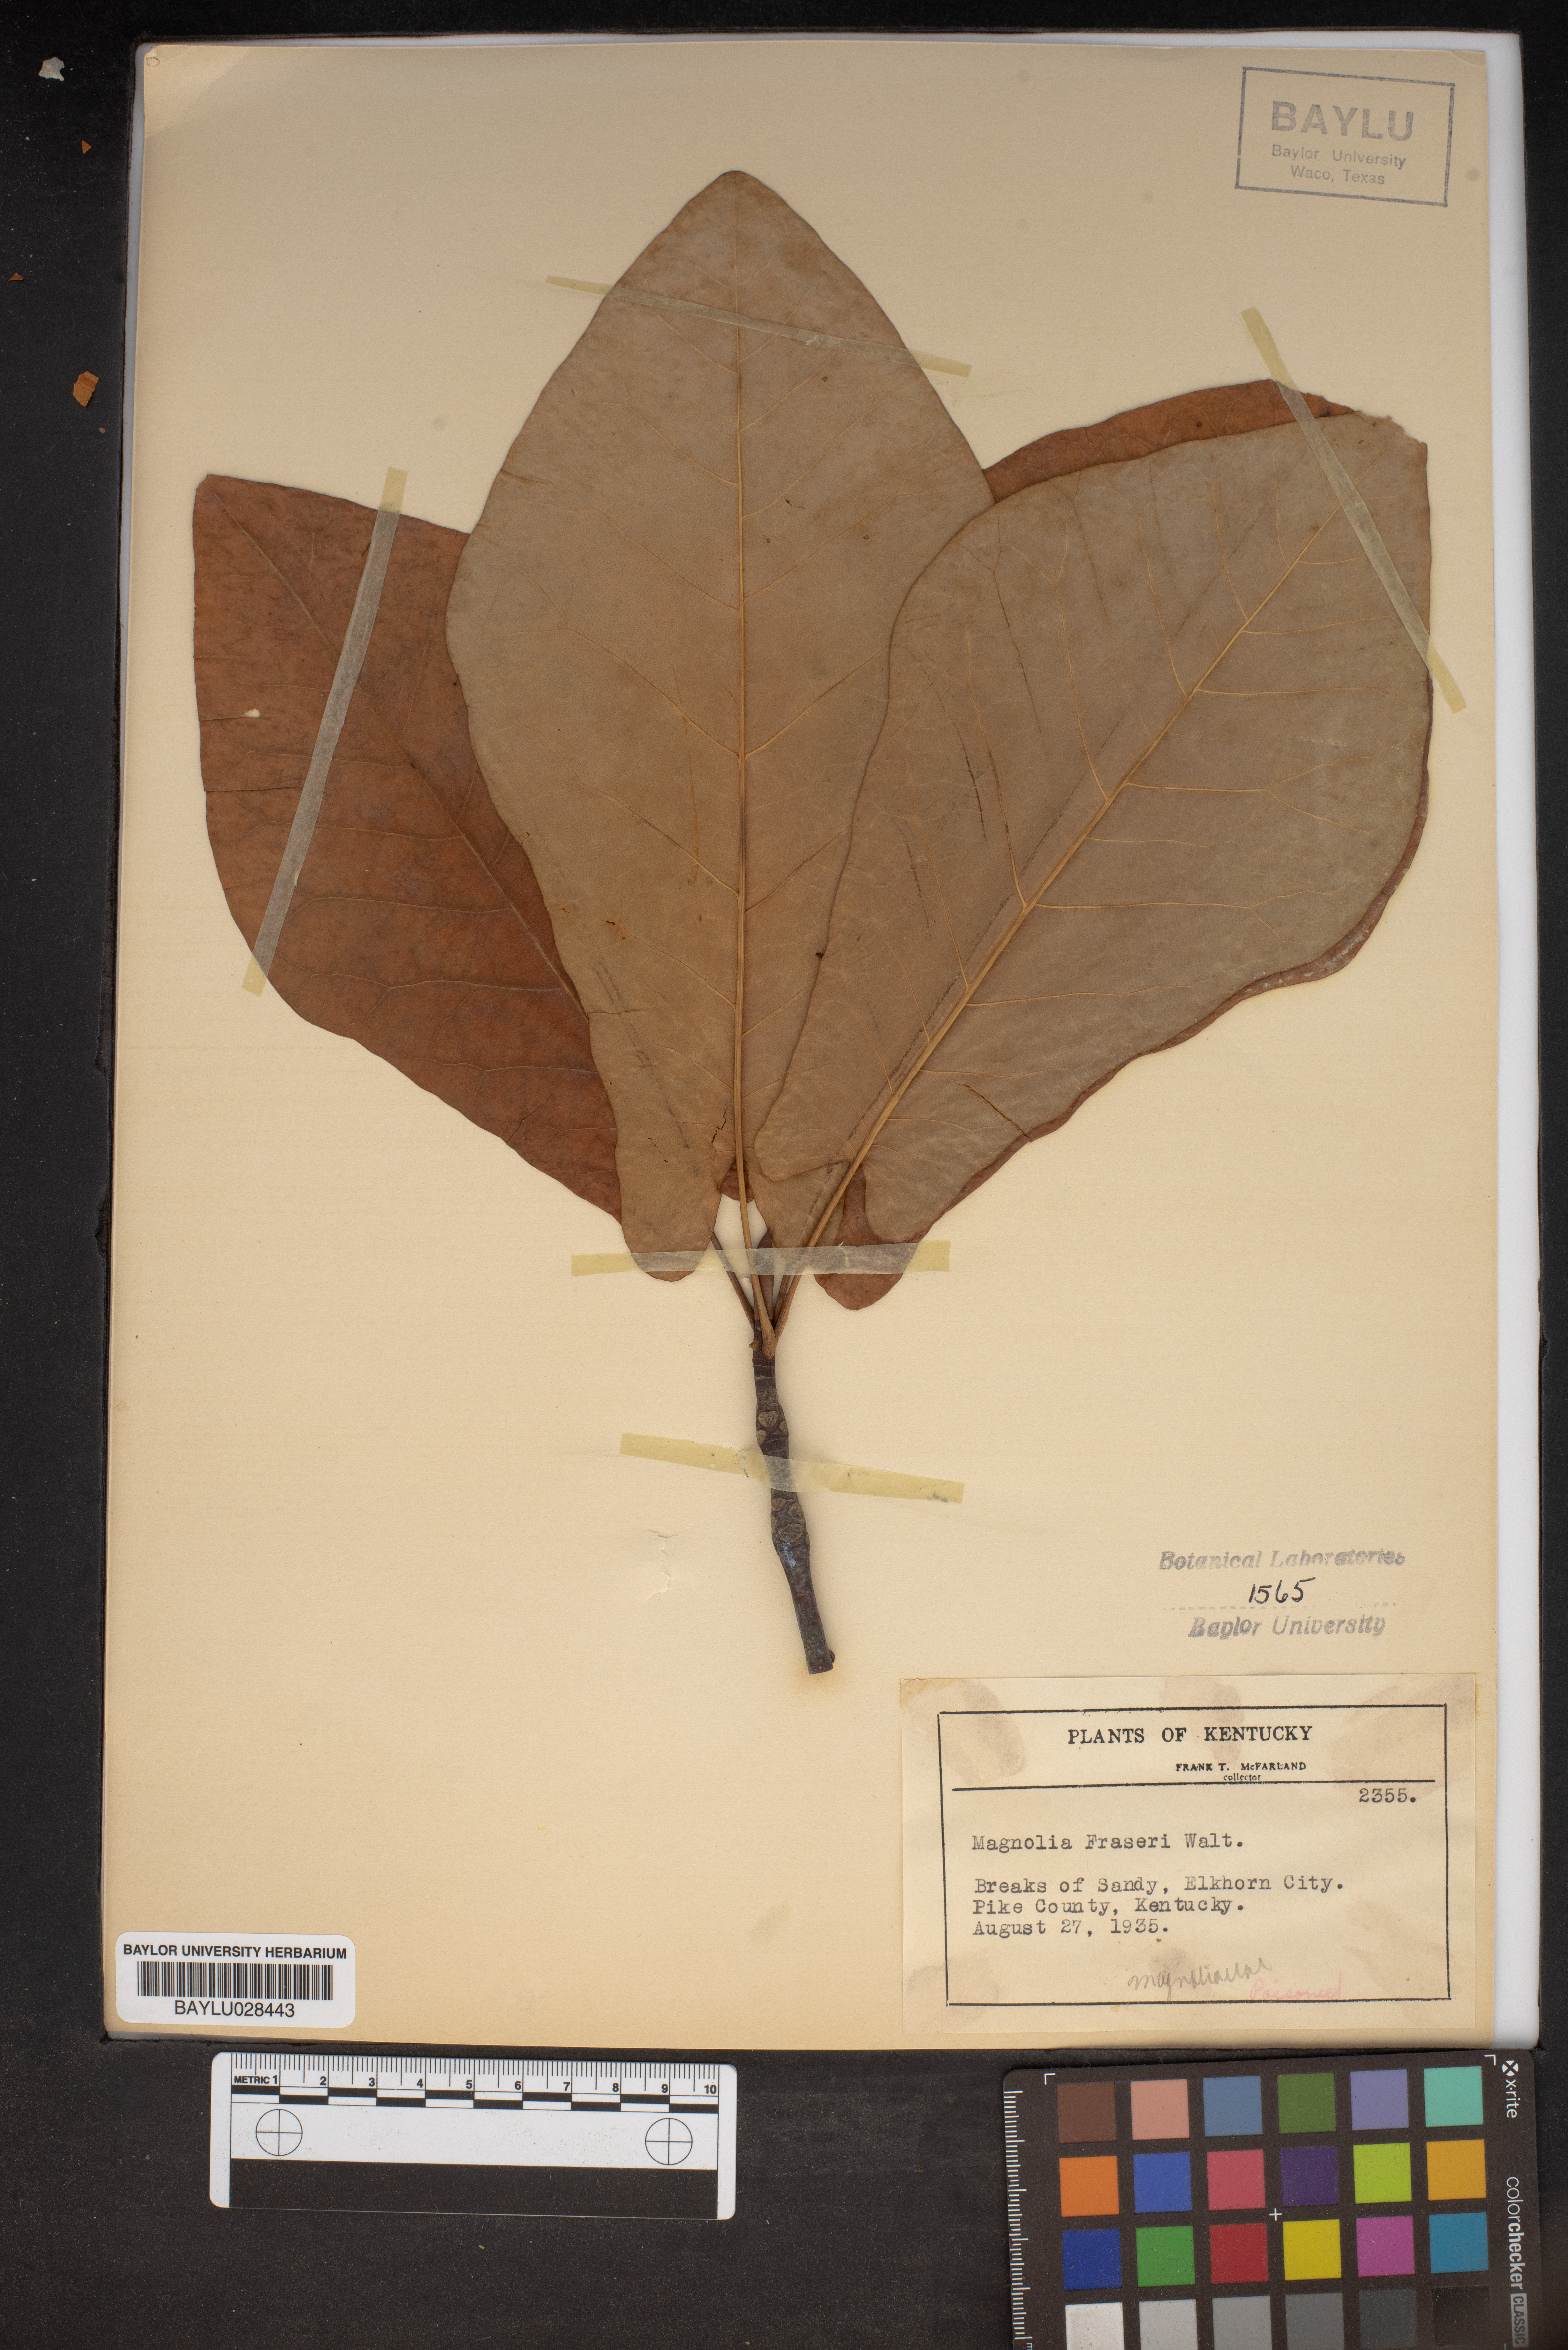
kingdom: Plantae
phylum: Tracheophyta
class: Magnoliopsida
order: Magnoliales
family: Magnoliaceae
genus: Magnolia
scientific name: Magnolia fraseri
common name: Fraser's magnolia
